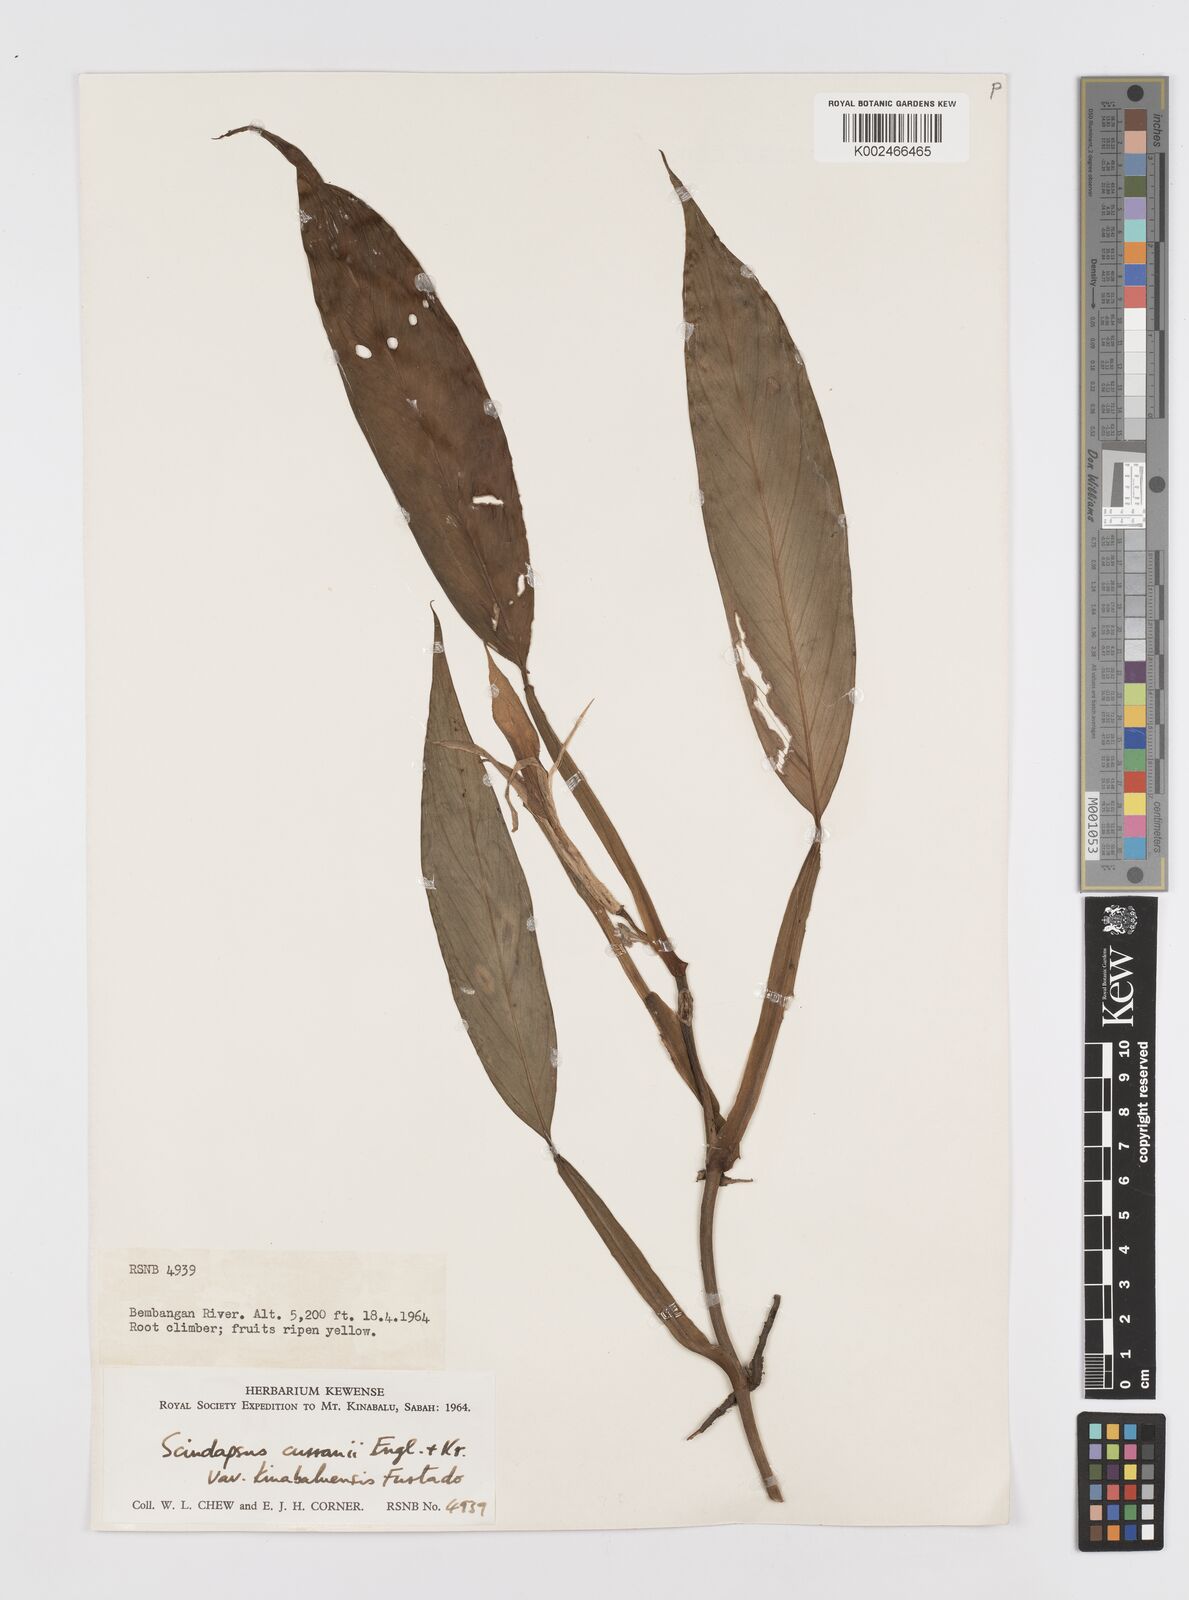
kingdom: Plantae
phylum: Tracheophyta
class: Liliopsida
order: Alismatales
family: Araceae
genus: Scindapsus
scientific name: Scindapsus curranii
